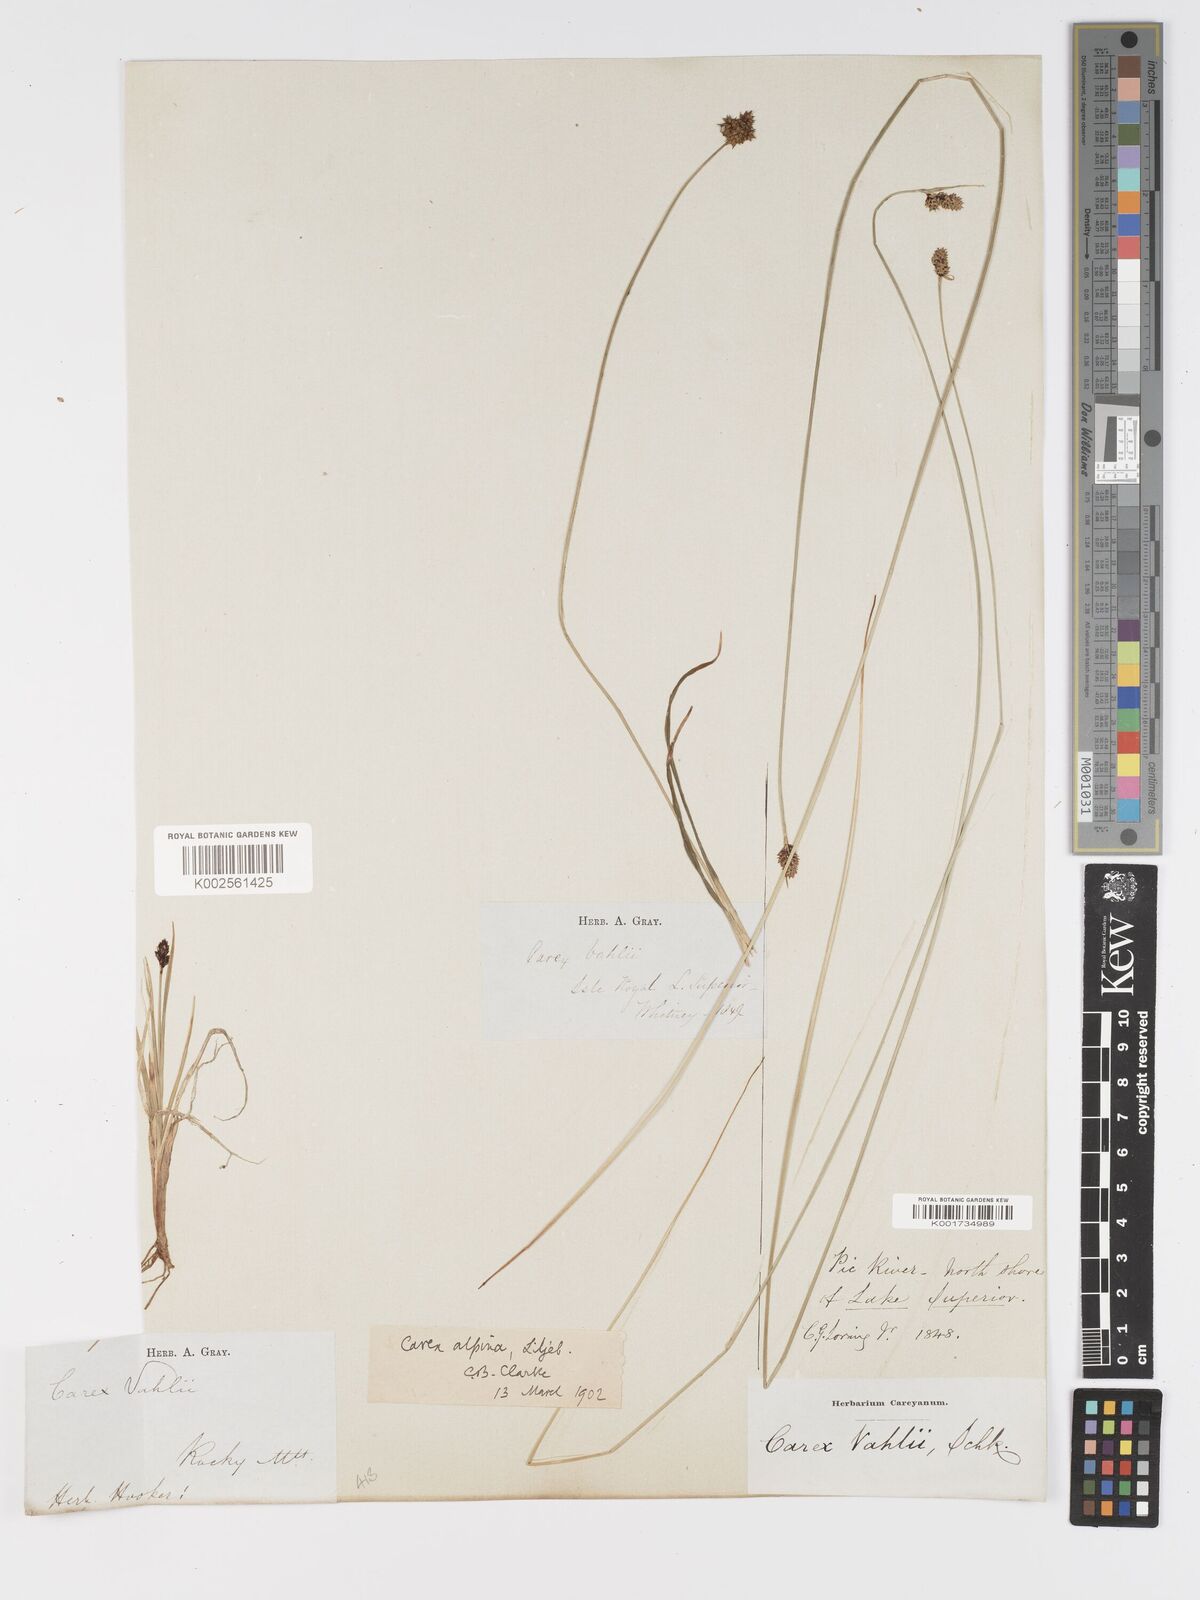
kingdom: Plantae
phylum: Tracheophyta
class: Liliopsida
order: Poales
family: Cyperaceae
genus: Carex
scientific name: Carex parryana
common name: Parry's sedge
